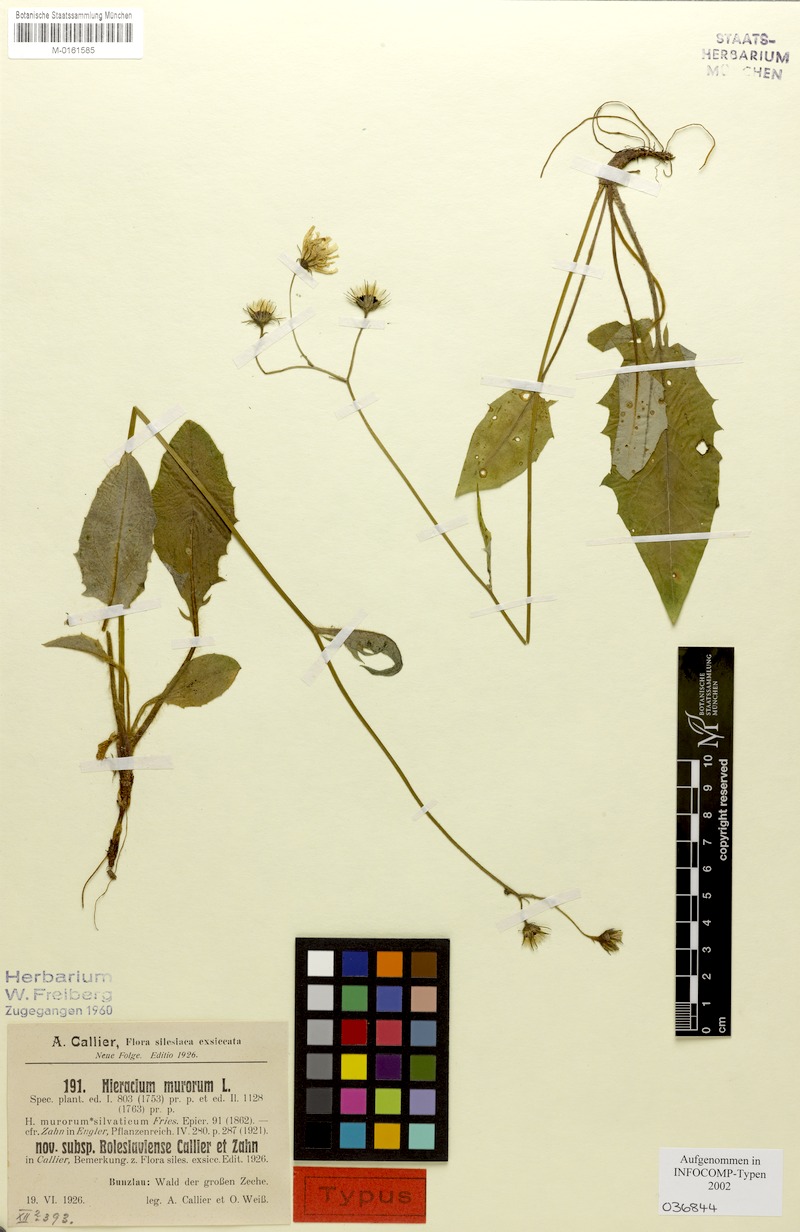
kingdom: Plantae
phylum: Tracheophyta
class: Magnoliopsida
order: Asterales
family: Asteraceae
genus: Hieracium
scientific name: Hieracium murorum
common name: Wall hawkweed
